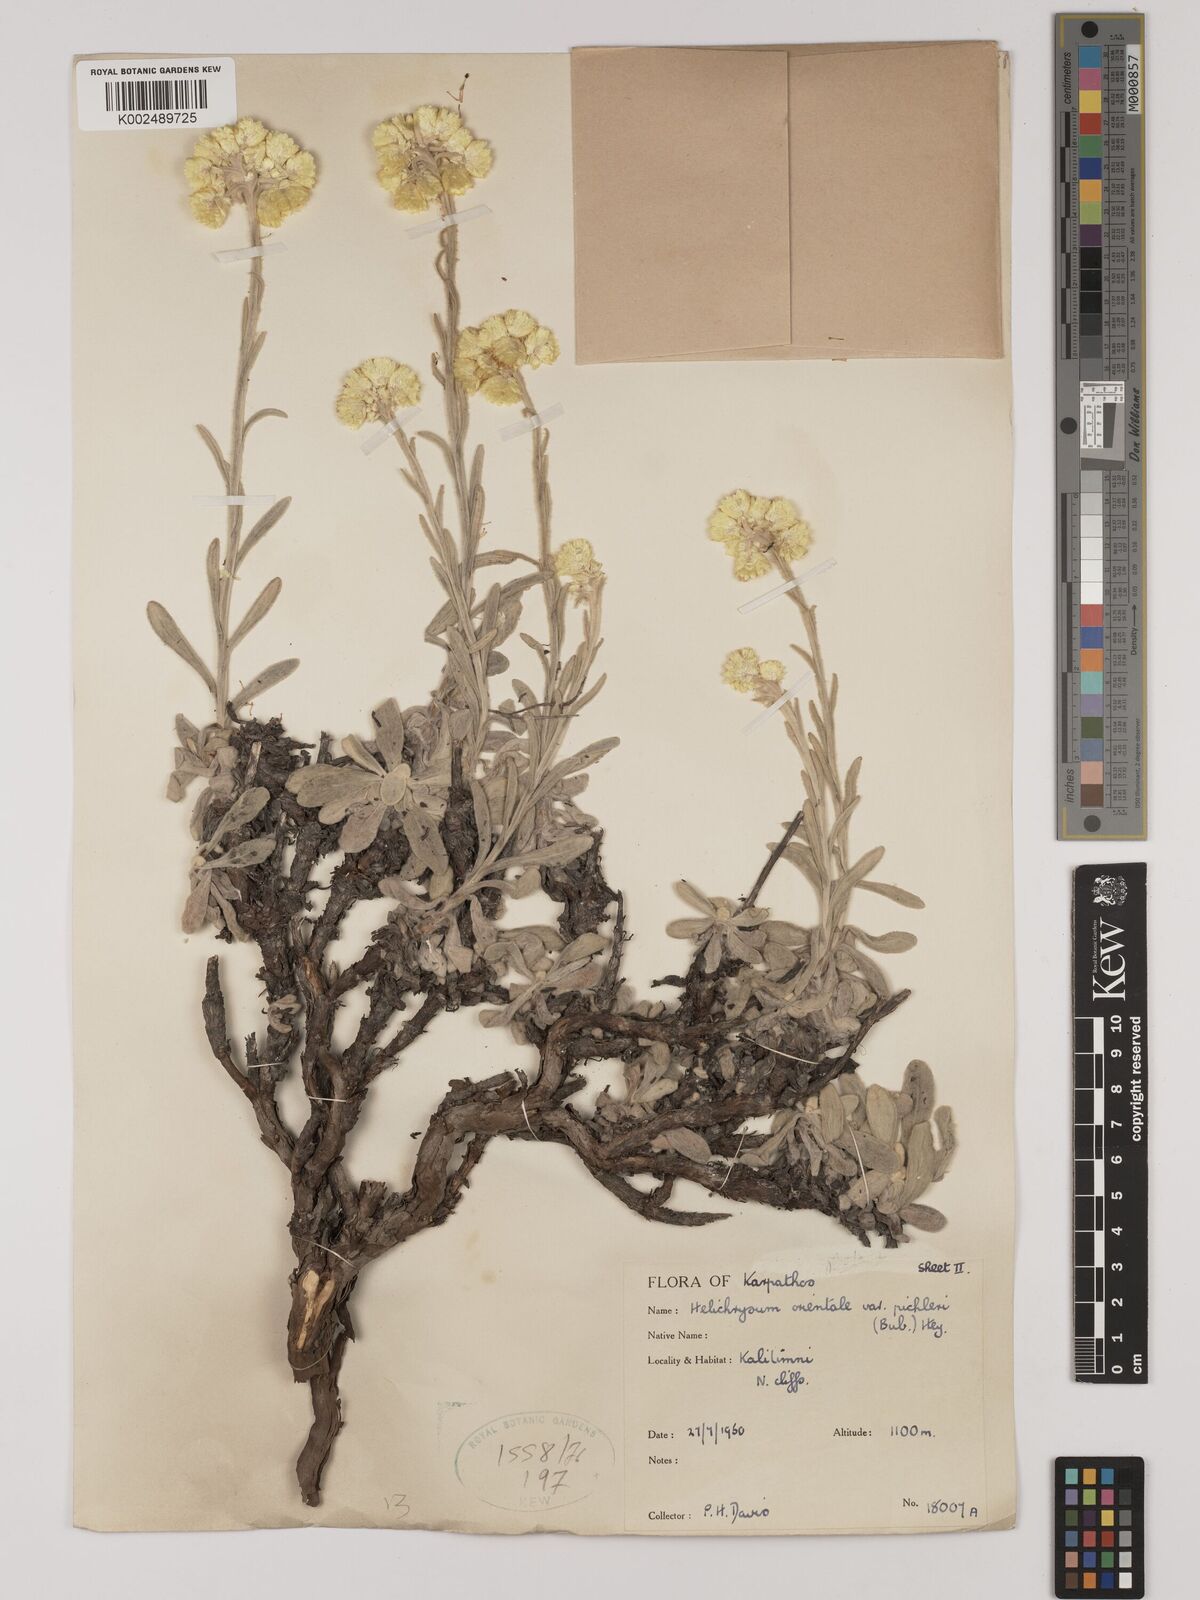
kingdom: Plantae
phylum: Tracheophyta
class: Magnoliopsida
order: Asterales
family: Asteraceae
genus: Helichrysum
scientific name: Helichrysum orientale
